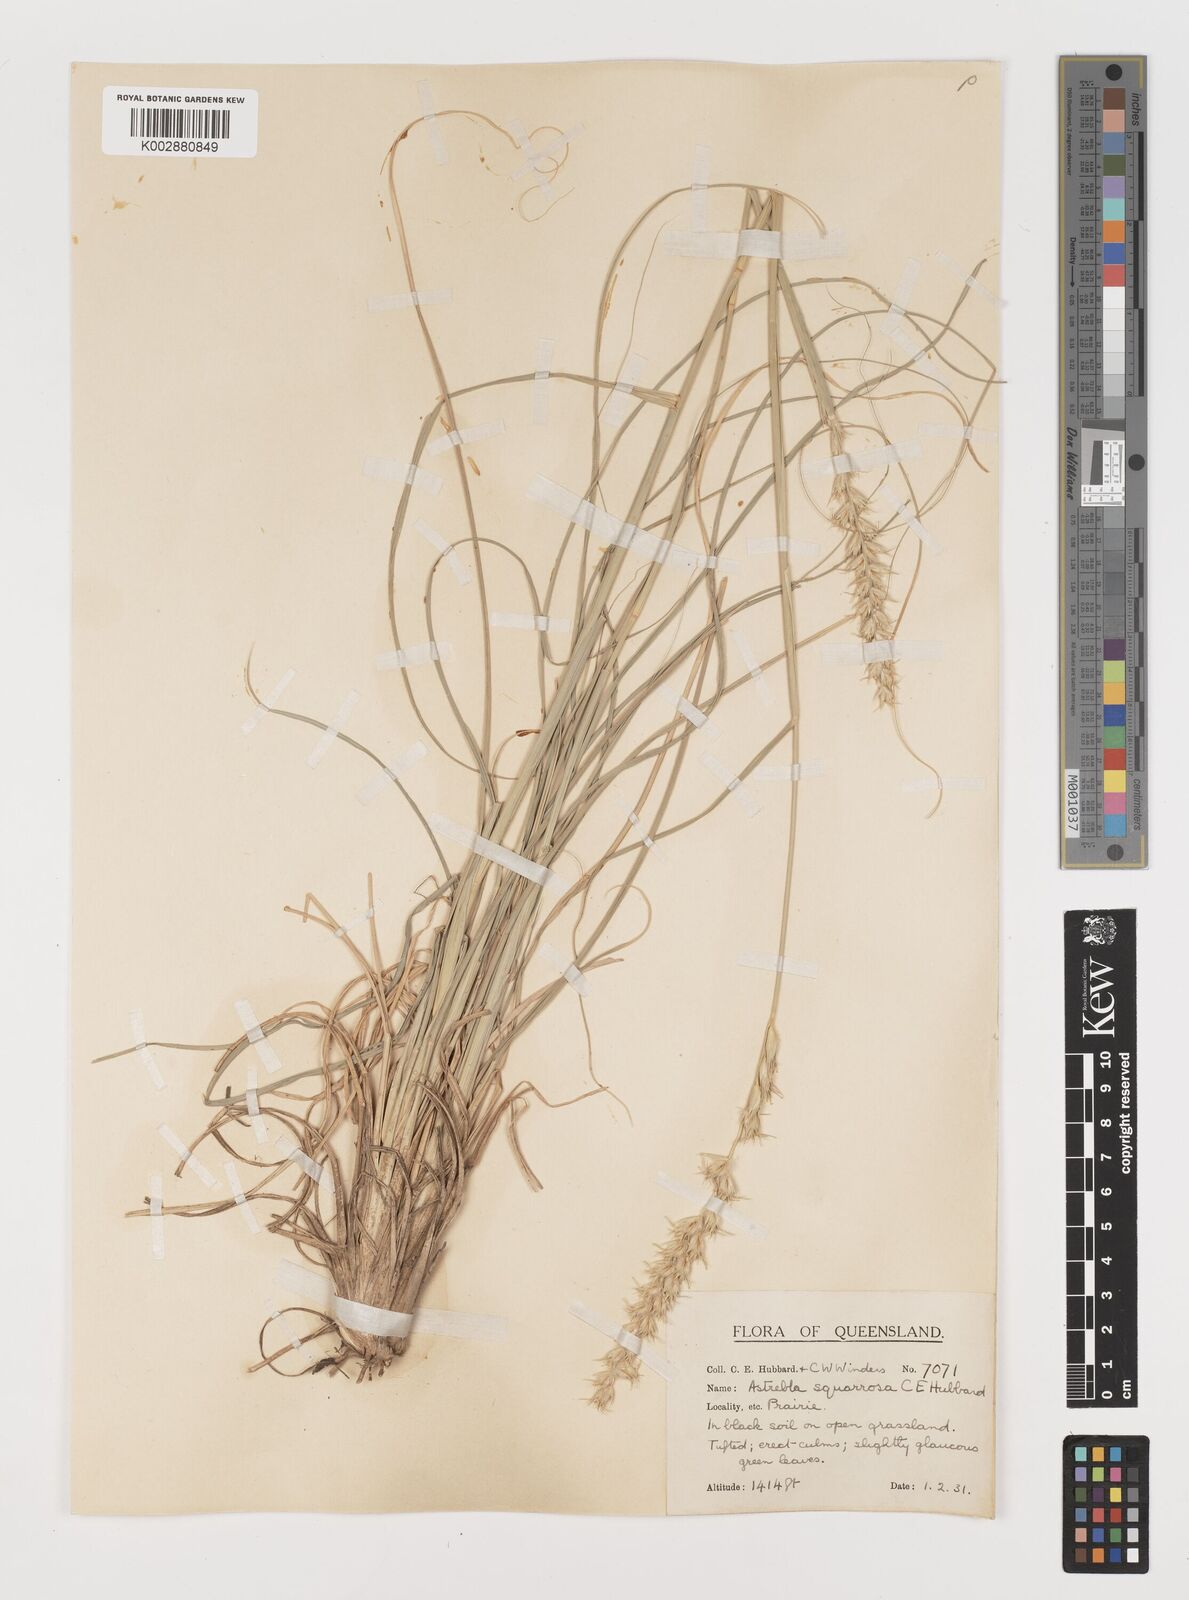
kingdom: Plantae
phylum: Tracheophyta
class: Liliopsida
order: Poales
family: Poaceae
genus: Astrebla
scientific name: Astrebla squarrosa
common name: Wheat-ear mitchell grass
